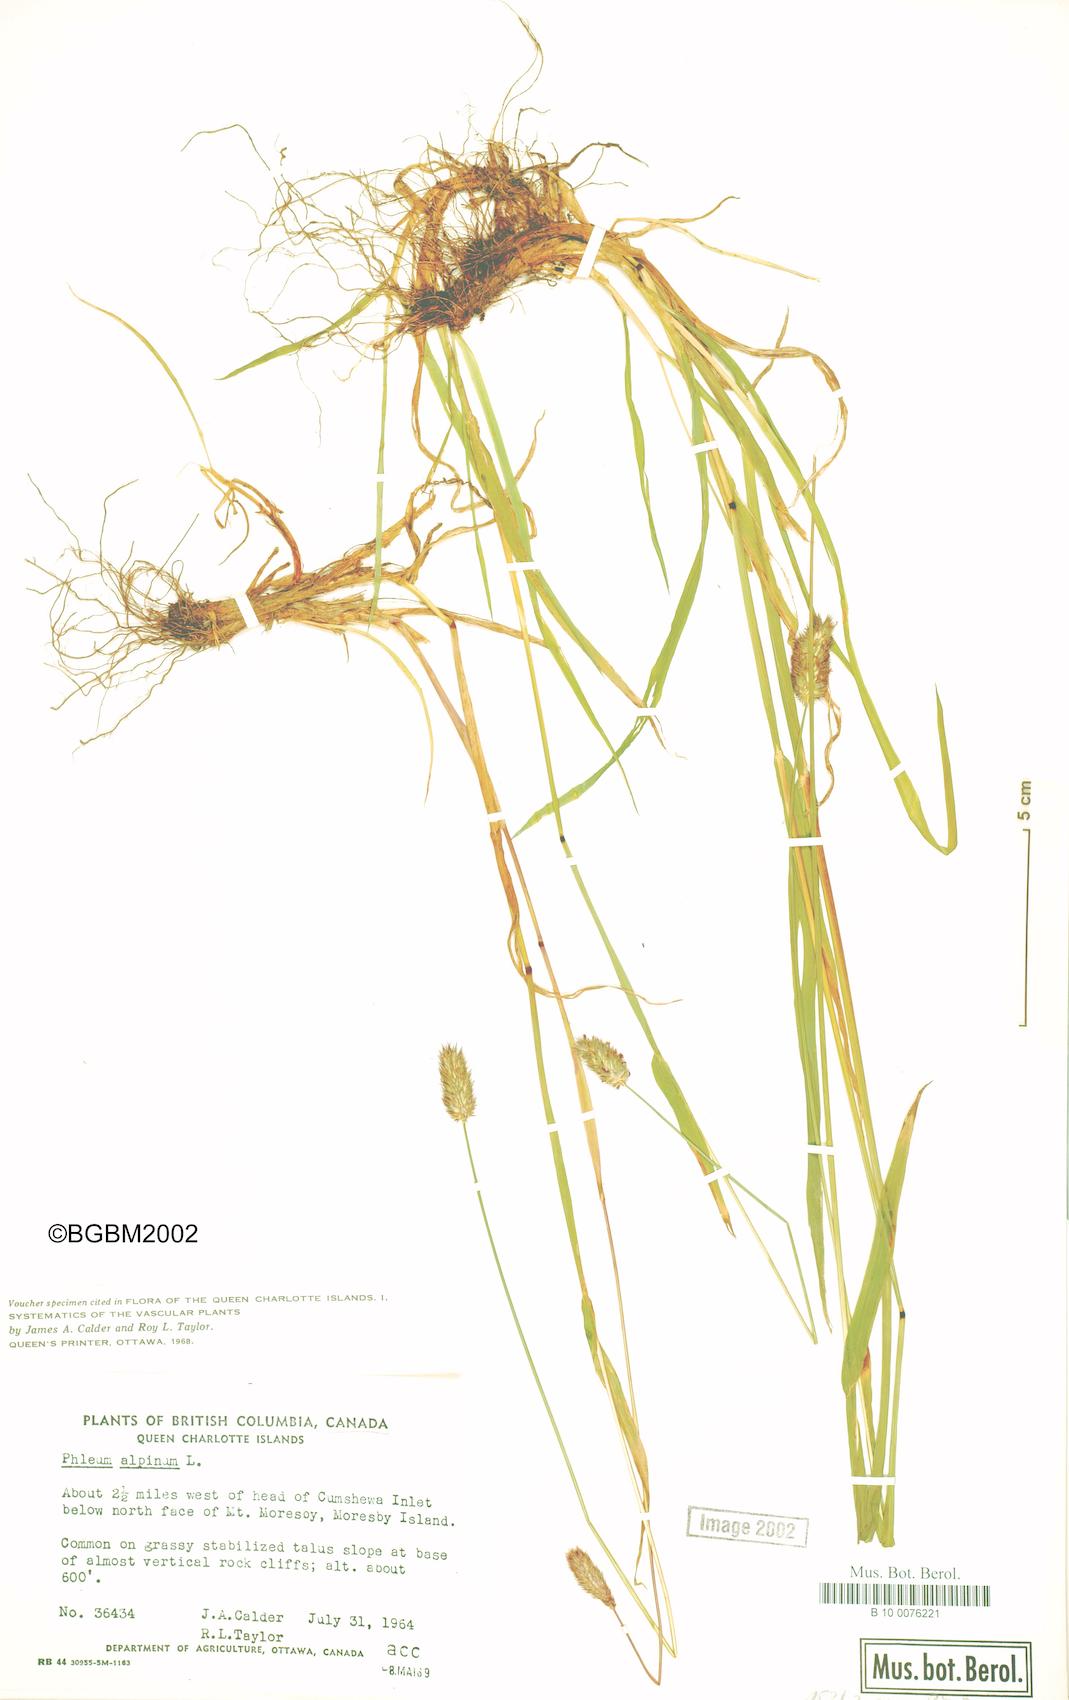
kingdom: Plantae
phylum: Tracheophyta
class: Liliopsida
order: Poales
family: Poaceae
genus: Phleum
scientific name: Phleum alpinum
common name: Alpine cat's-tail
